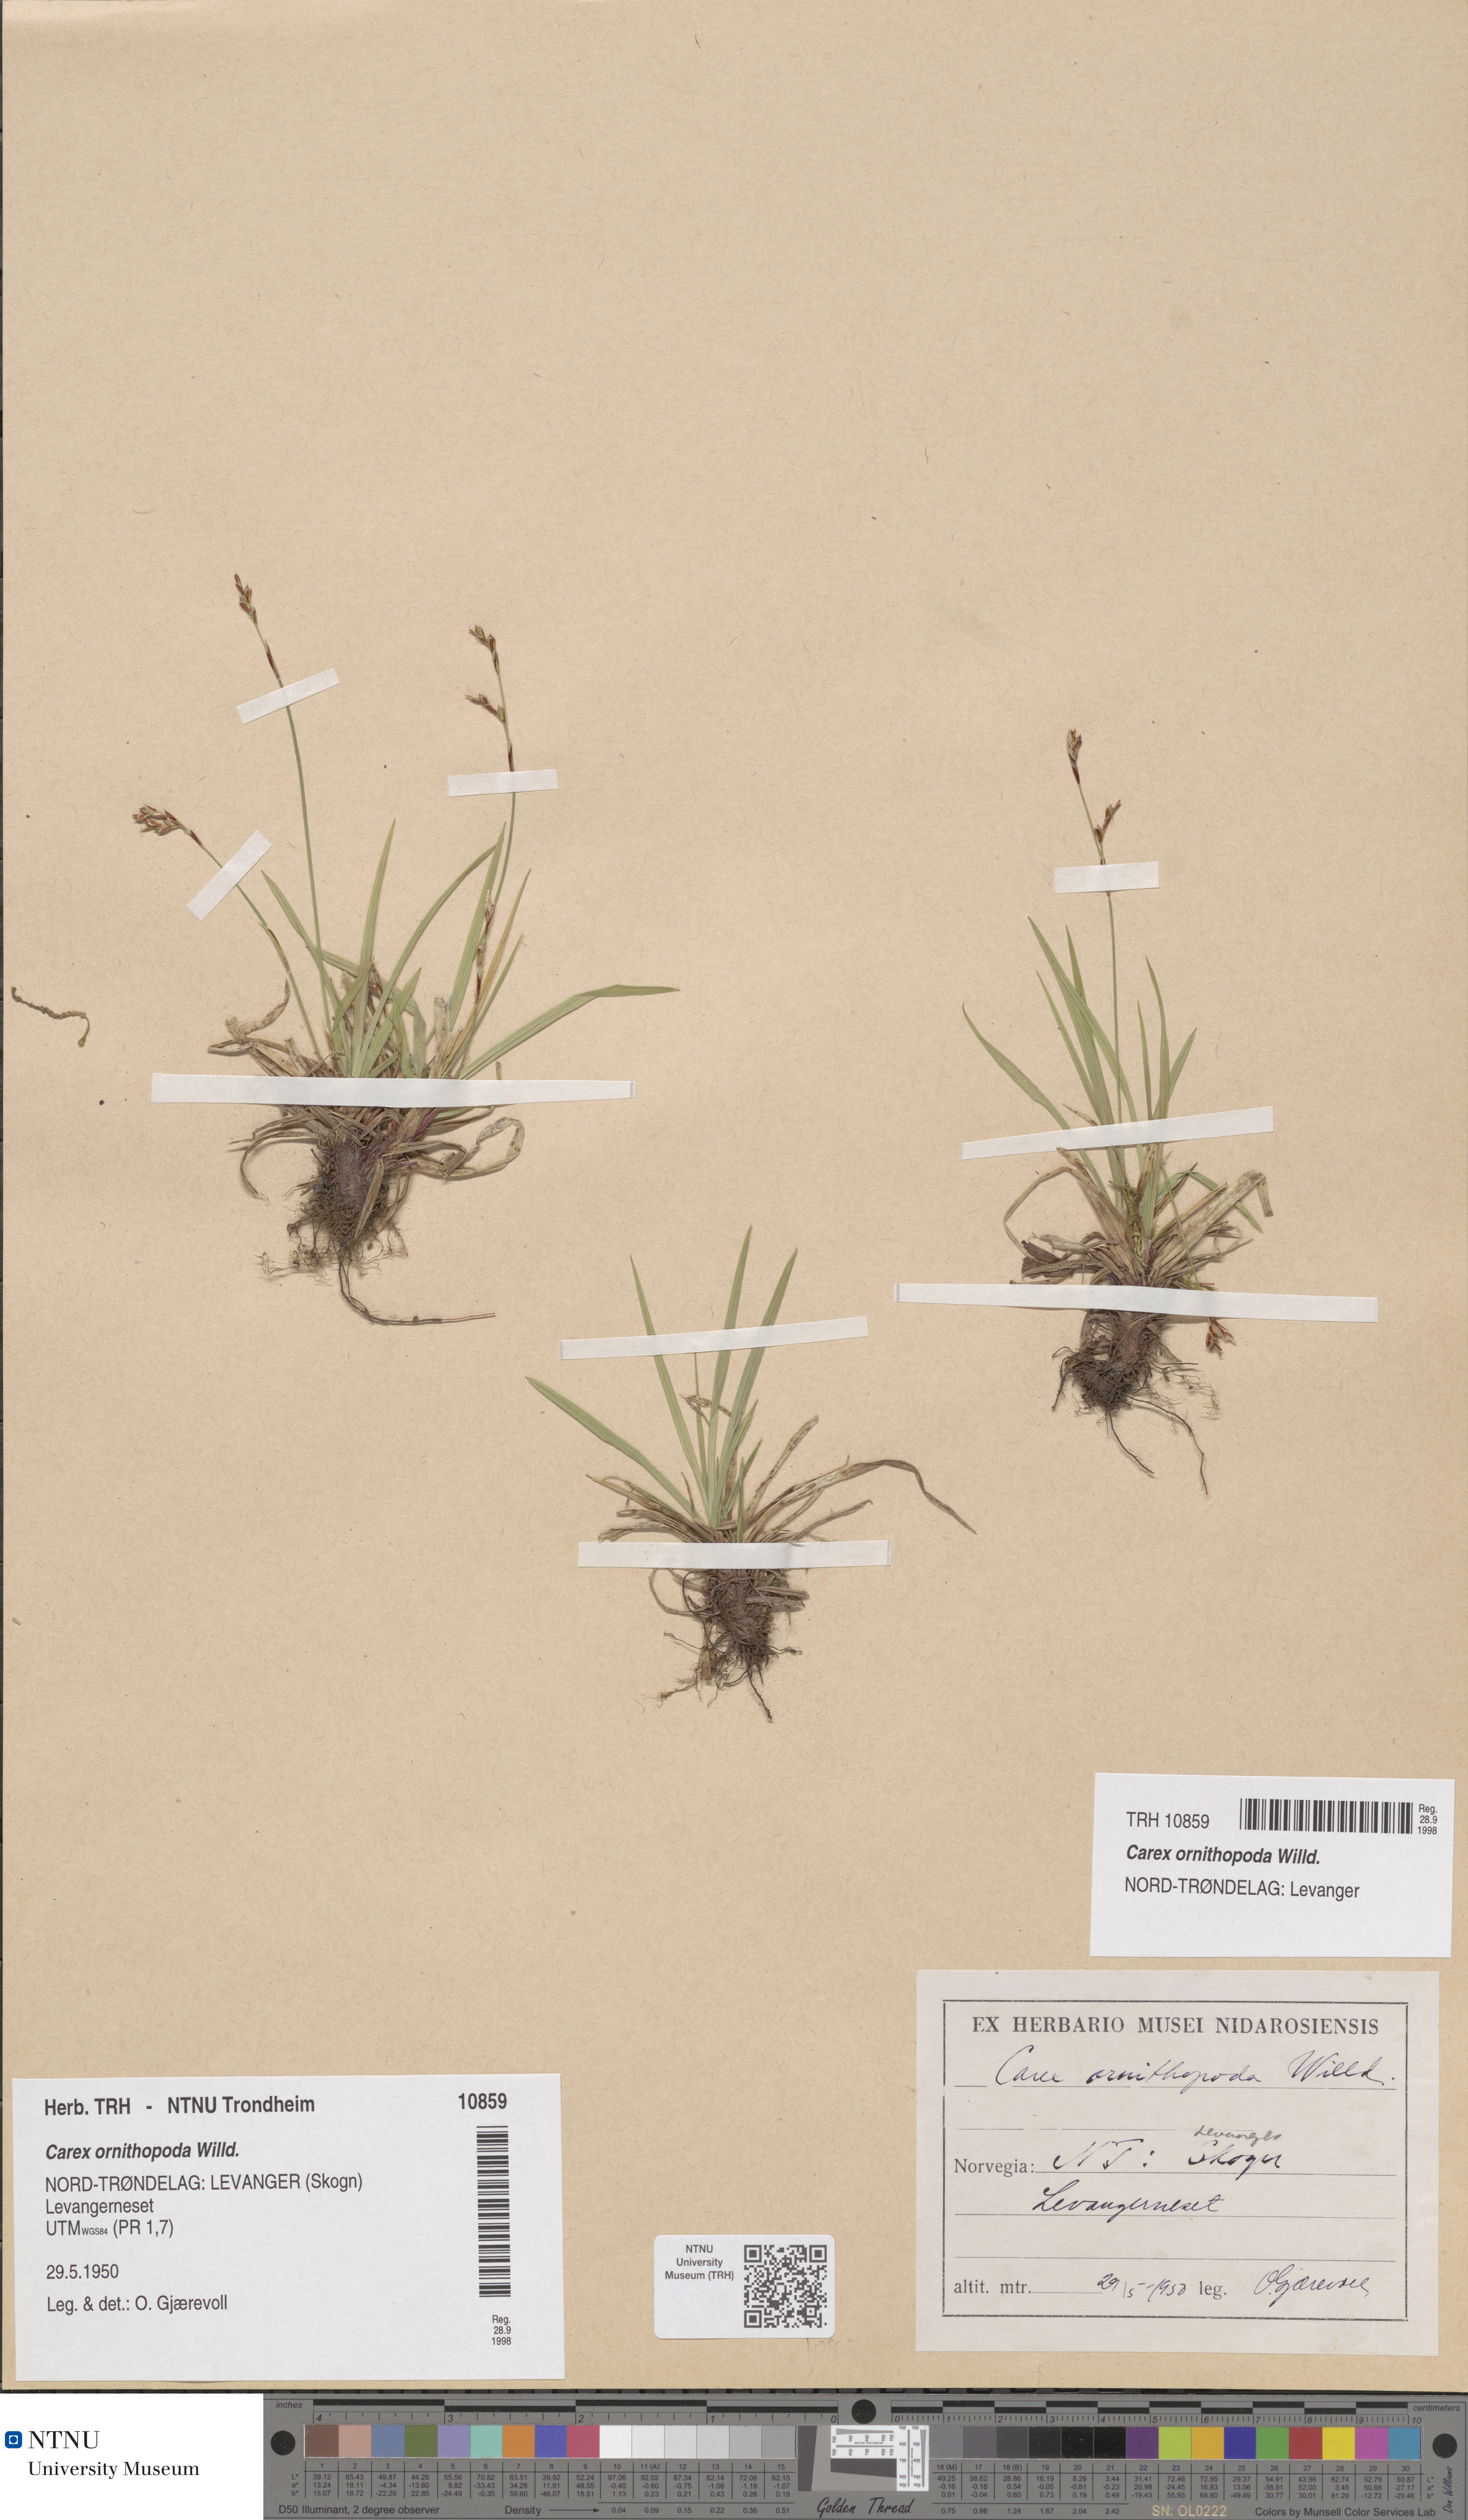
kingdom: Plantae
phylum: Tracheophyta
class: Liliopsida
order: Poales
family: Cyperaceae
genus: Carex
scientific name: Carex ornithopoda
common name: Bird's-foot sedge
